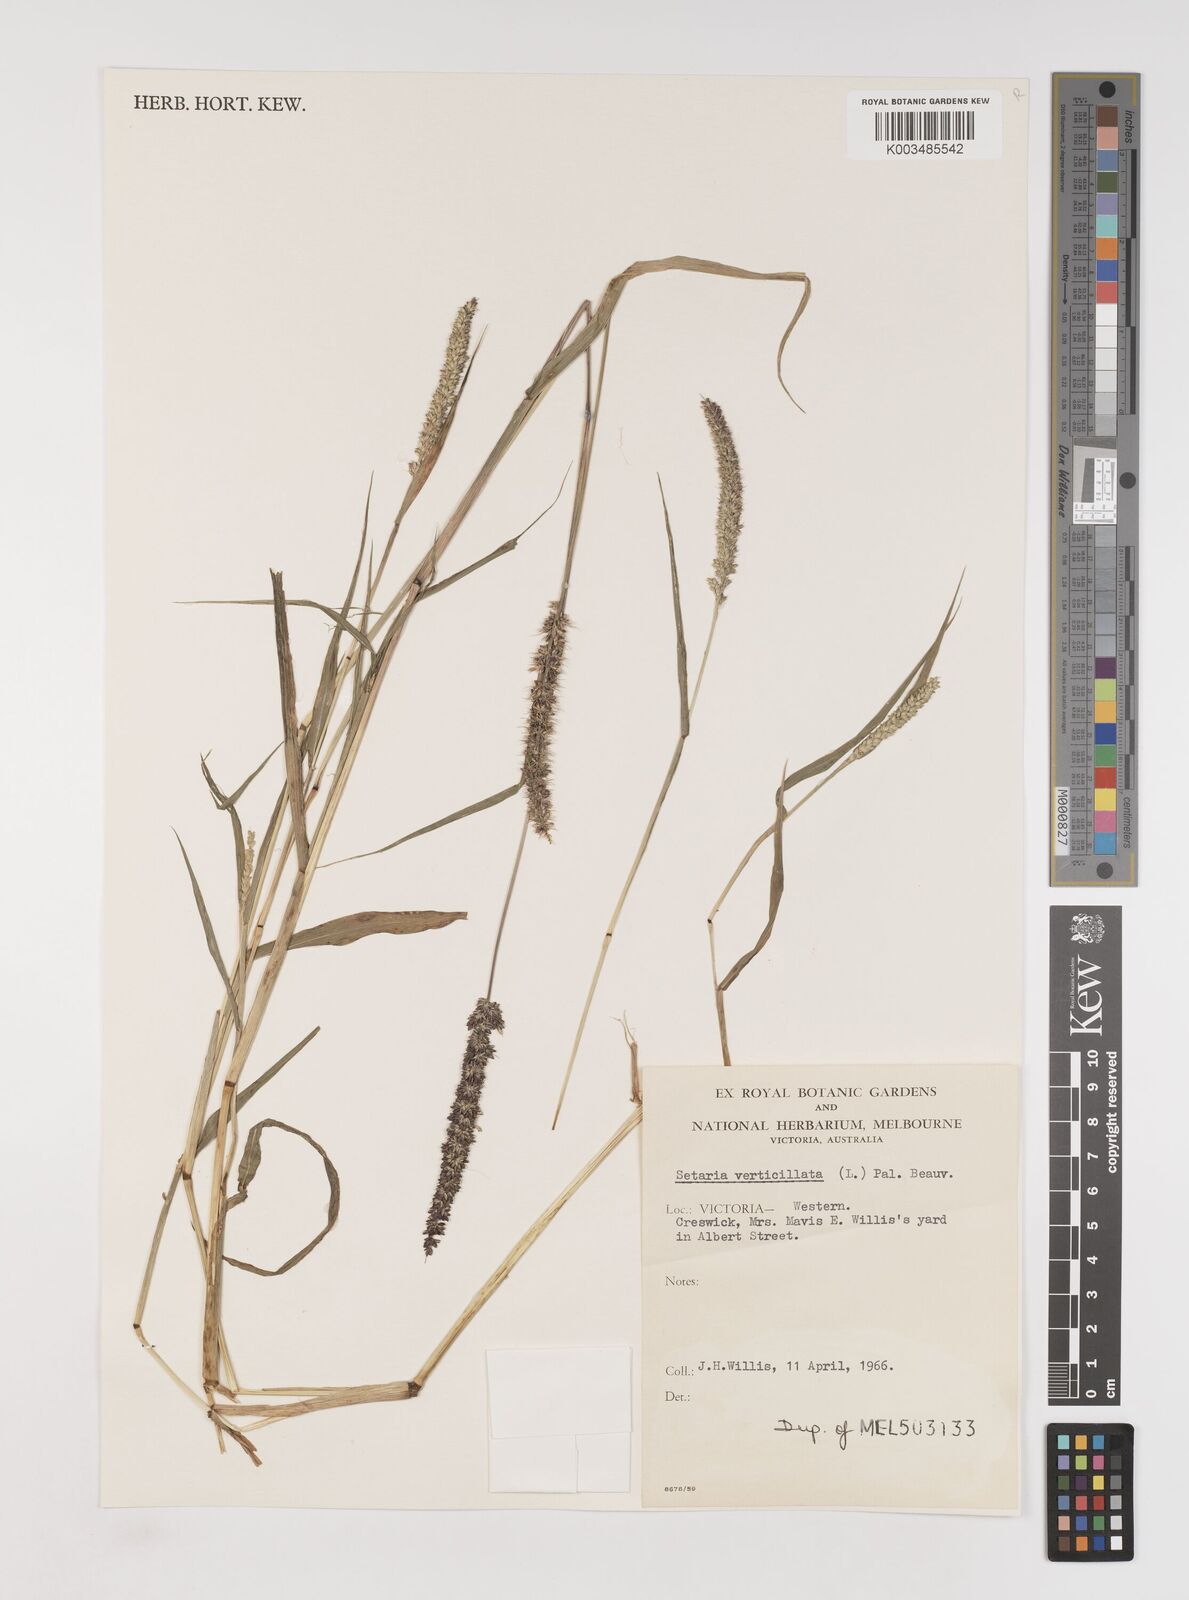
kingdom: Plantae
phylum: Tracheophyta
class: Liliopsida
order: Poales
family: Poaceae
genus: Setaria
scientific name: Setaria verticillata
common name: Hooked bristlegrass
